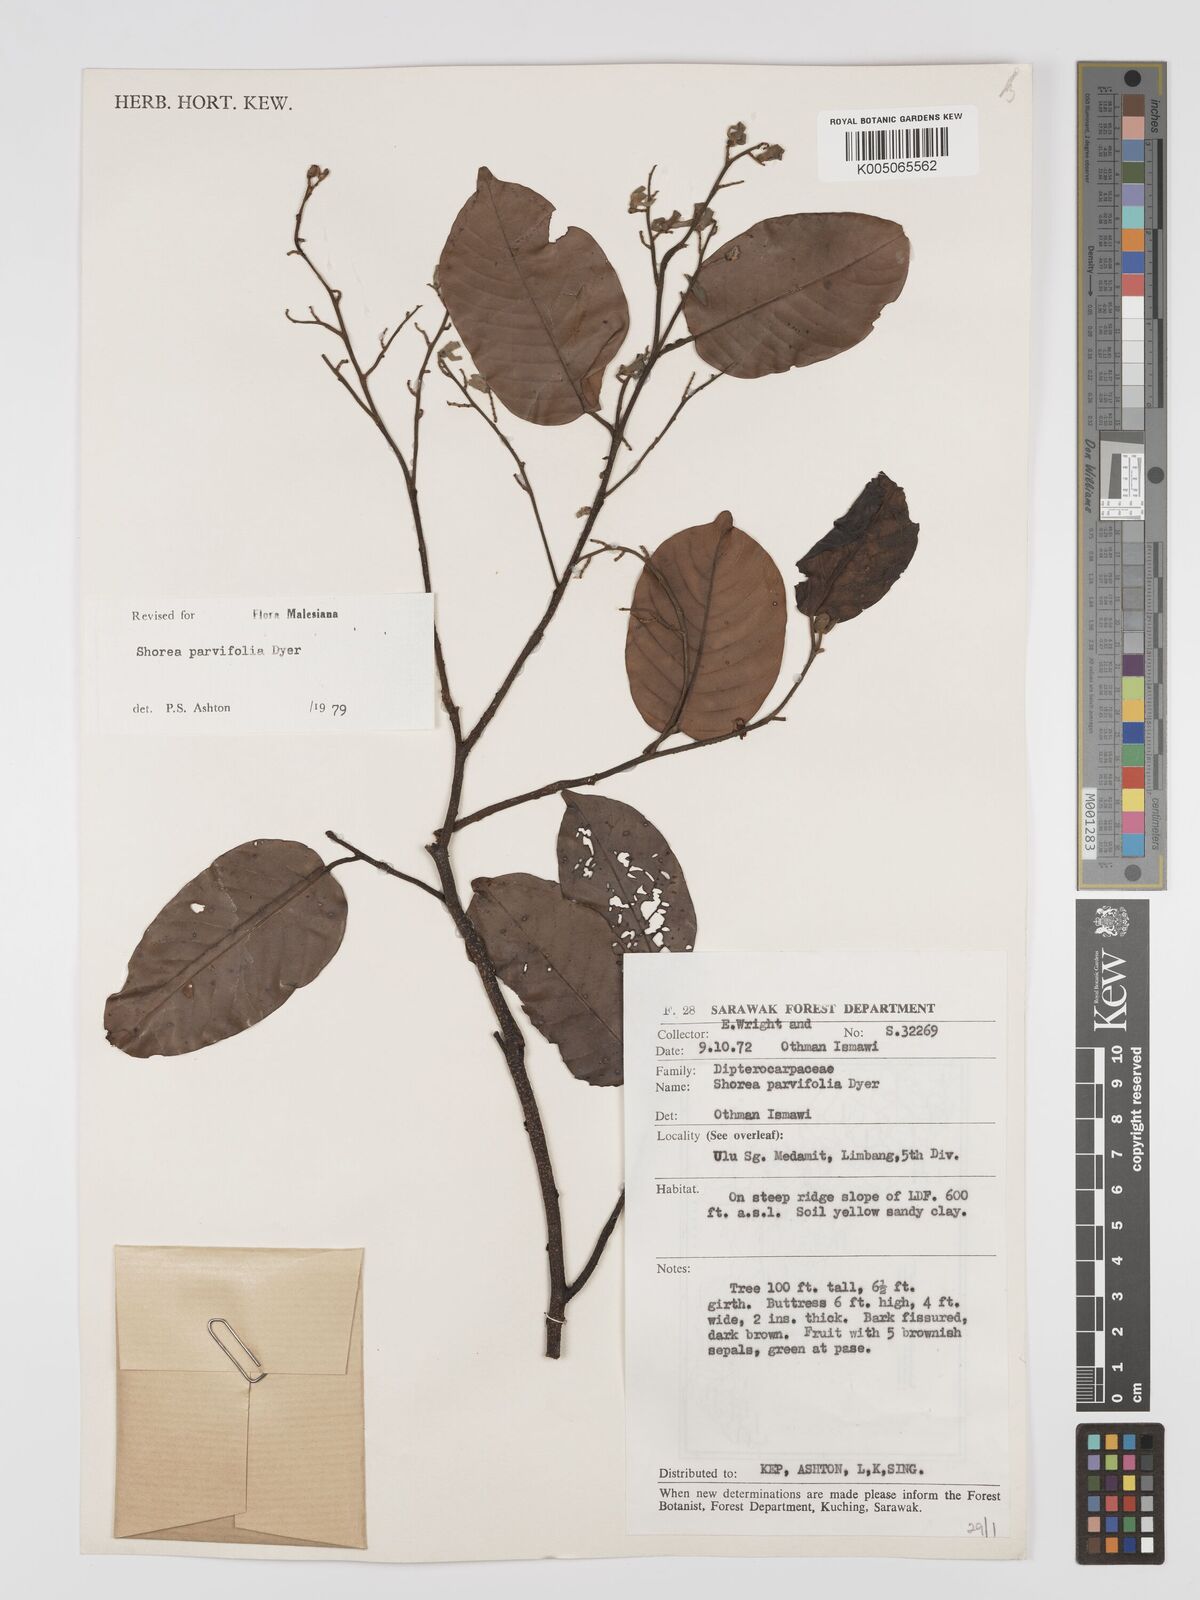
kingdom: Plantae
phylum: Tracheophyta
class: Magnoliopsida
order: Malvales
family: Dipterocarpaceae
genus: Shorea
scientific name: Shorea parvifolia
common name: Light red meranti
